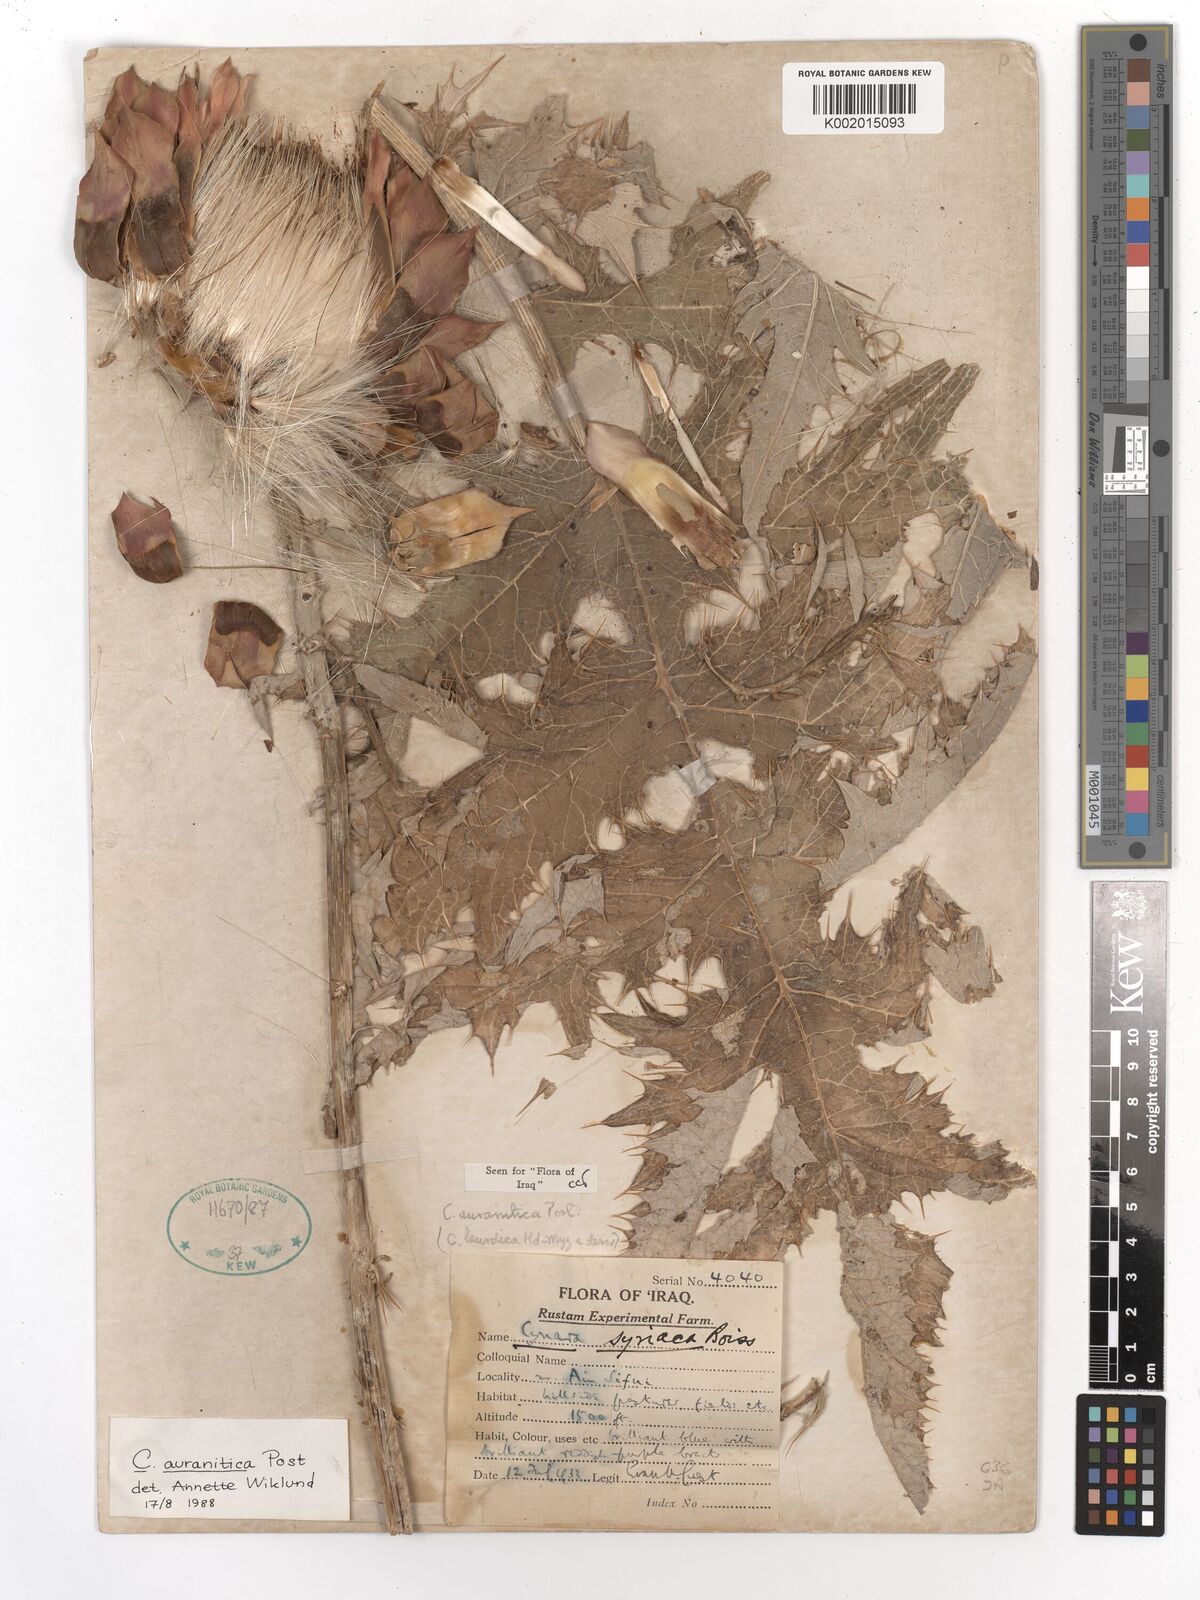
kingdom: Plantae
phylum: Tracheophyta
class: Magnoliopsida
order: Asterales
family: Asteraceae
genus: Cynara
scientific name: Cynara auranitica
